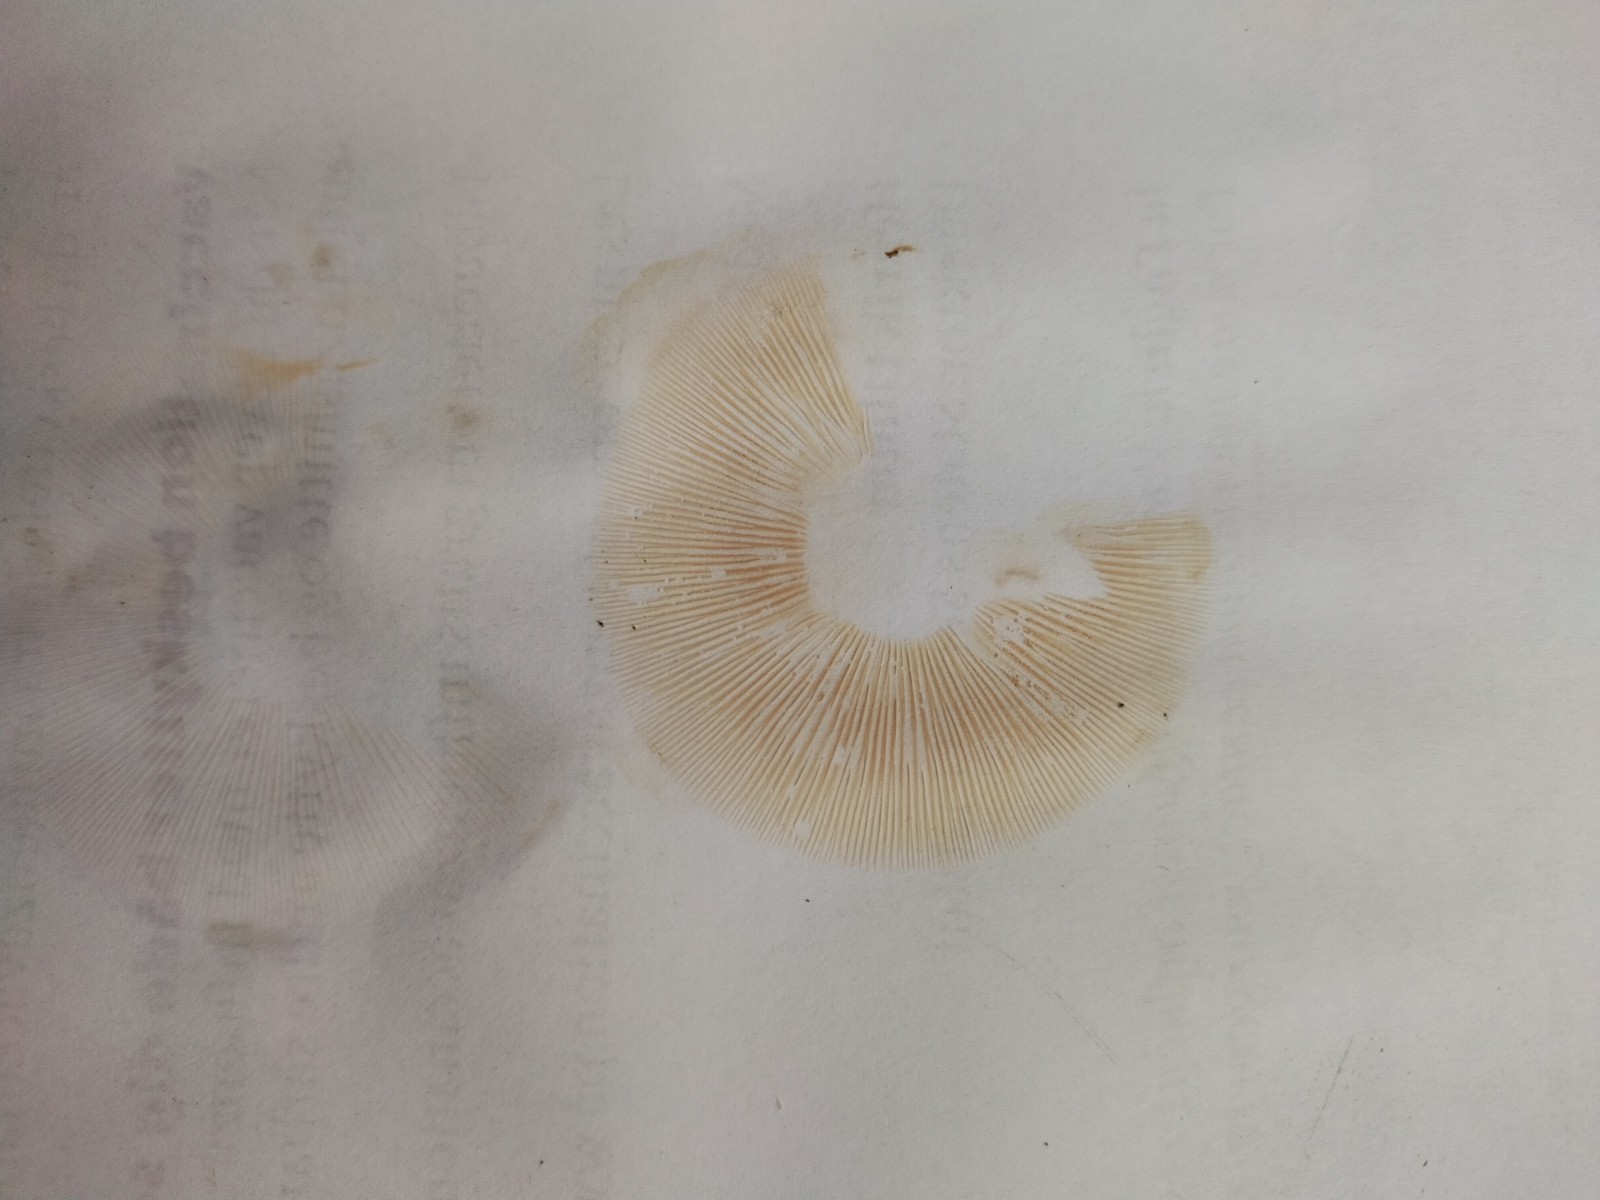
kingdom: Fungi
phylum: Basidiomycota
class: Agaricomycetes
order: Agaricales
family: Tricholomataceae
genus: Lepista
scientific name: Lepista
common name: hekseringshat
